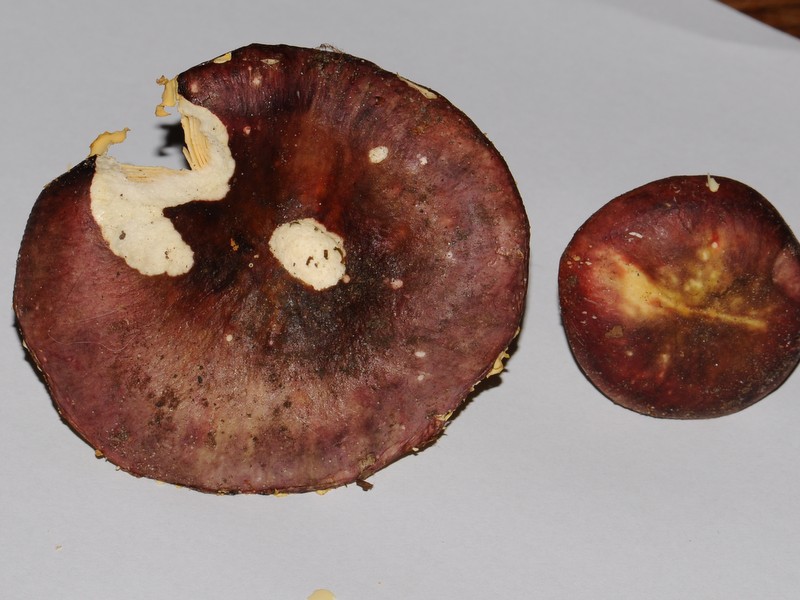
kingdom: Fungi
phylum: Basidiomycota
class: Agaricomycetes
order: Russulales
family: Russulaceae
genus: Russula
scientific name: Russula romellii
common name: romells skørhat
